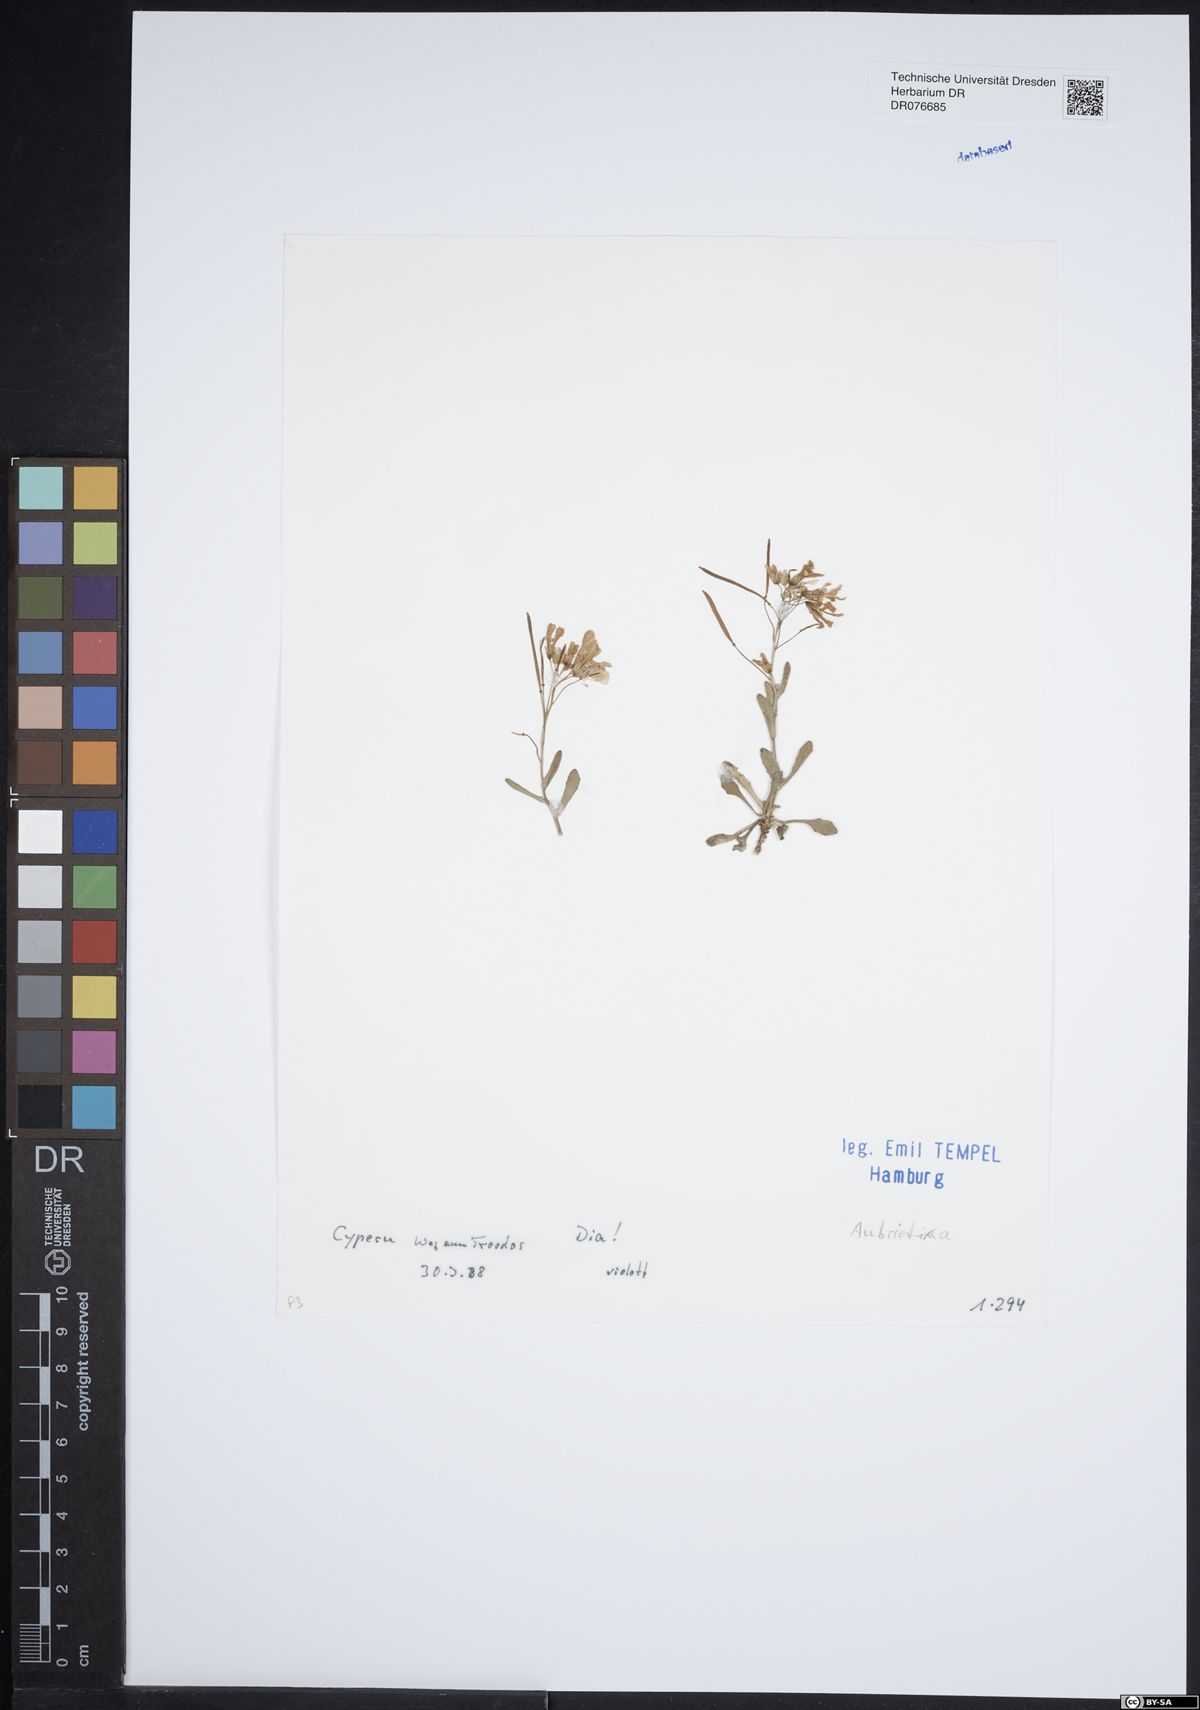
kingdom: Plantae
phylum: Tracheophyta
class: Magnoliopsida
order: Brassicales
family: Brassicaceae
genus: Aubrieta
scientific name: Aubrieta
